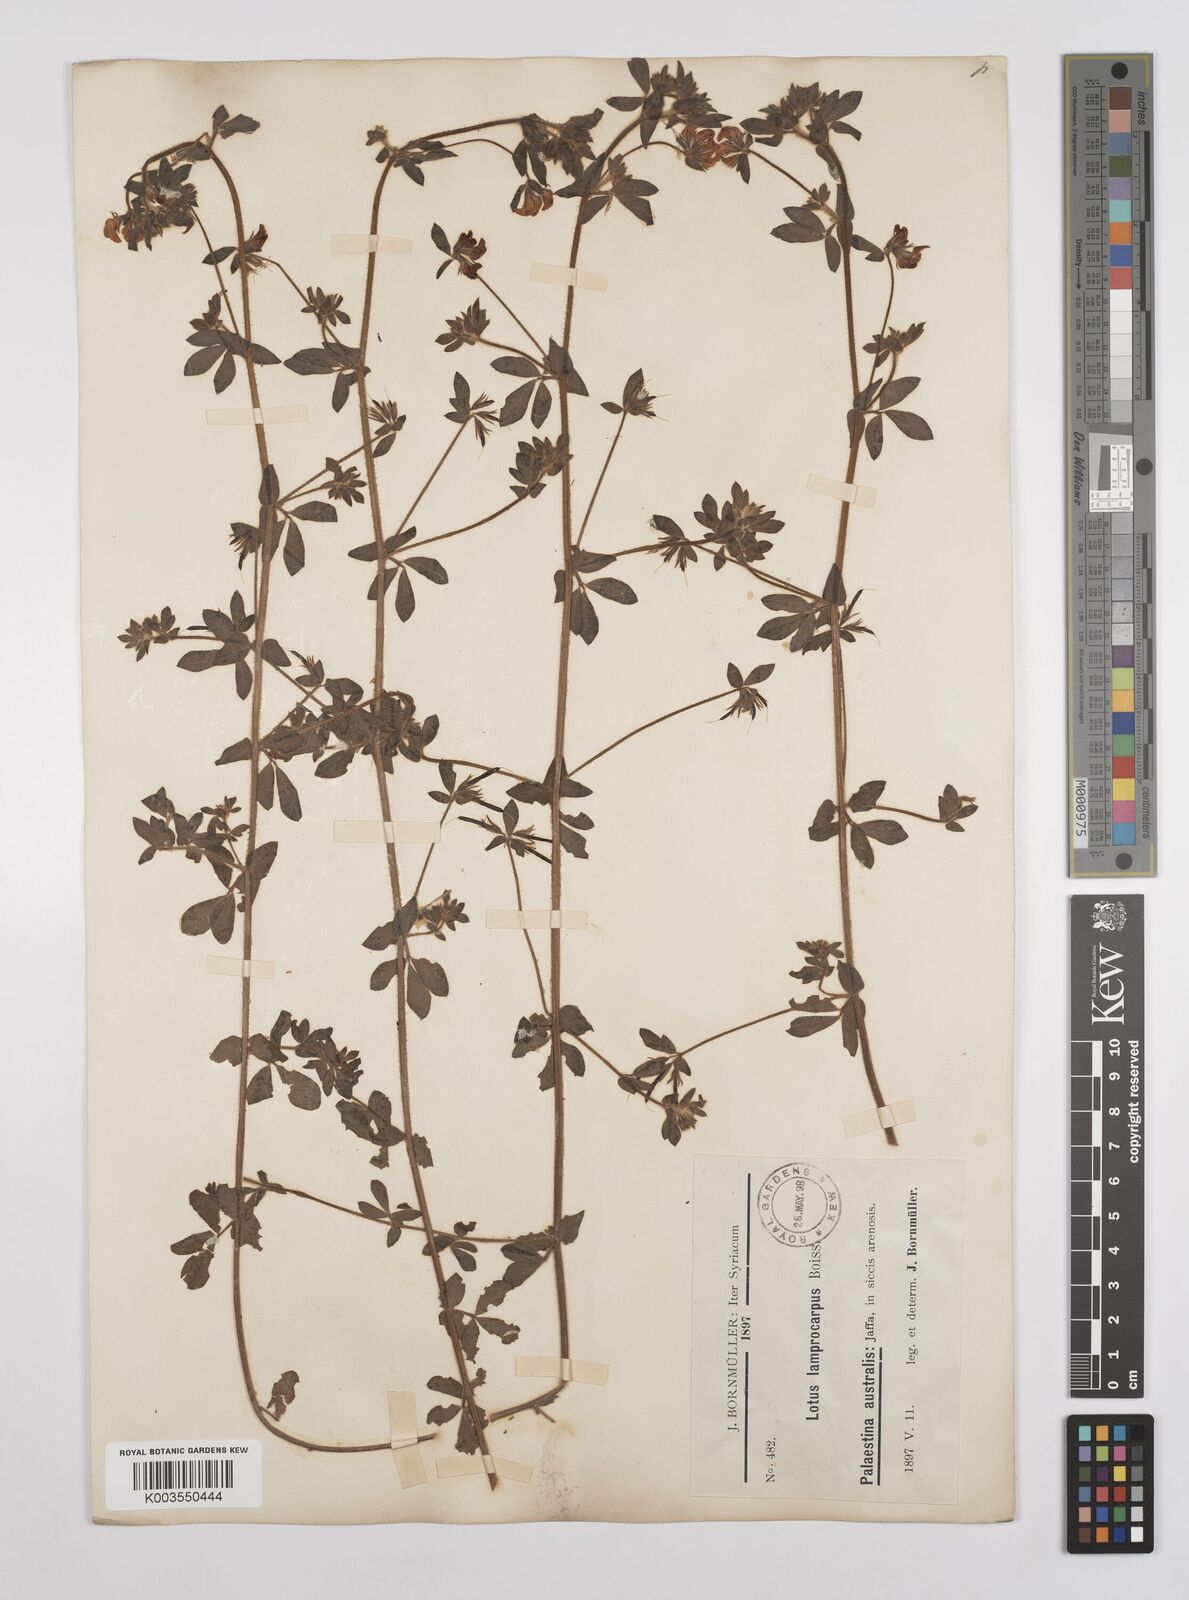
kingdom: Plantae
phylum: Tracheophyta
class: Magnoliopsida
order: Fabales
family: Fabaceae
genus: Lotus
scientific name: Lotus palustris
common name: Large birds-foot trefoil
